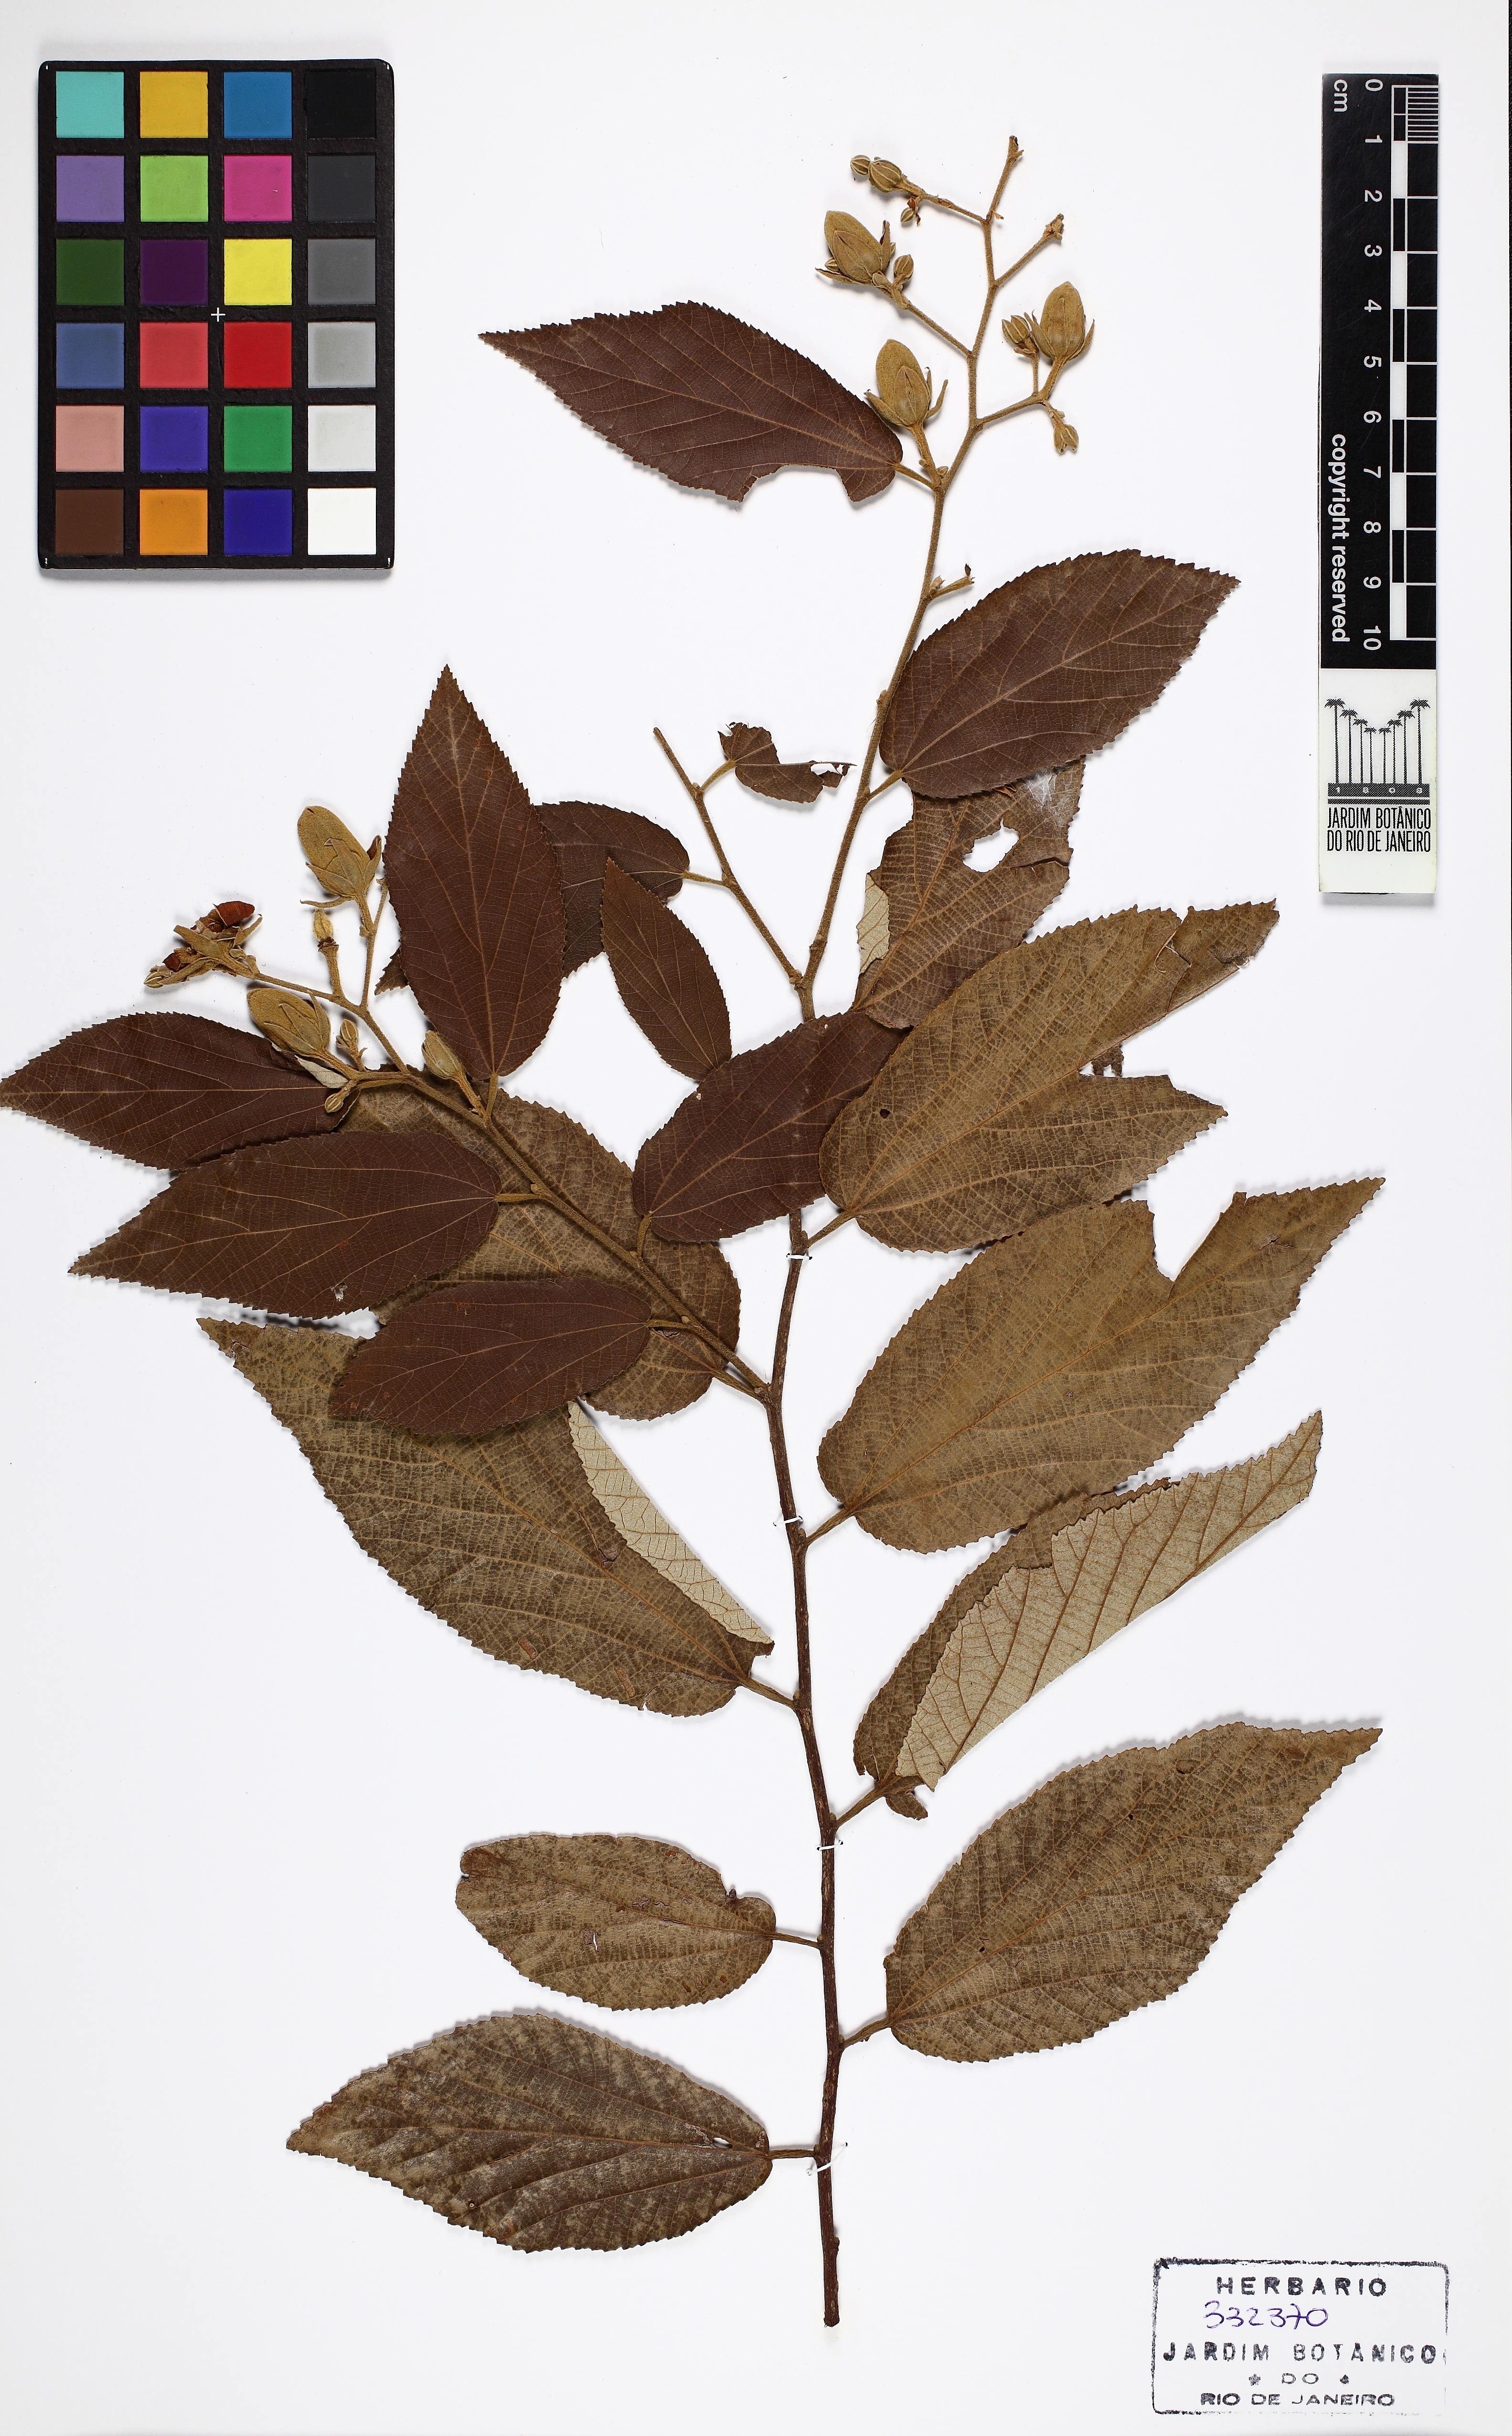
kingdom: Plantae
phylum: Tracheophyta
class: Magnoliopsida
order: Malvales
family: Malvaceae
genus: Luehea
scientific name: Luehea divaricata
